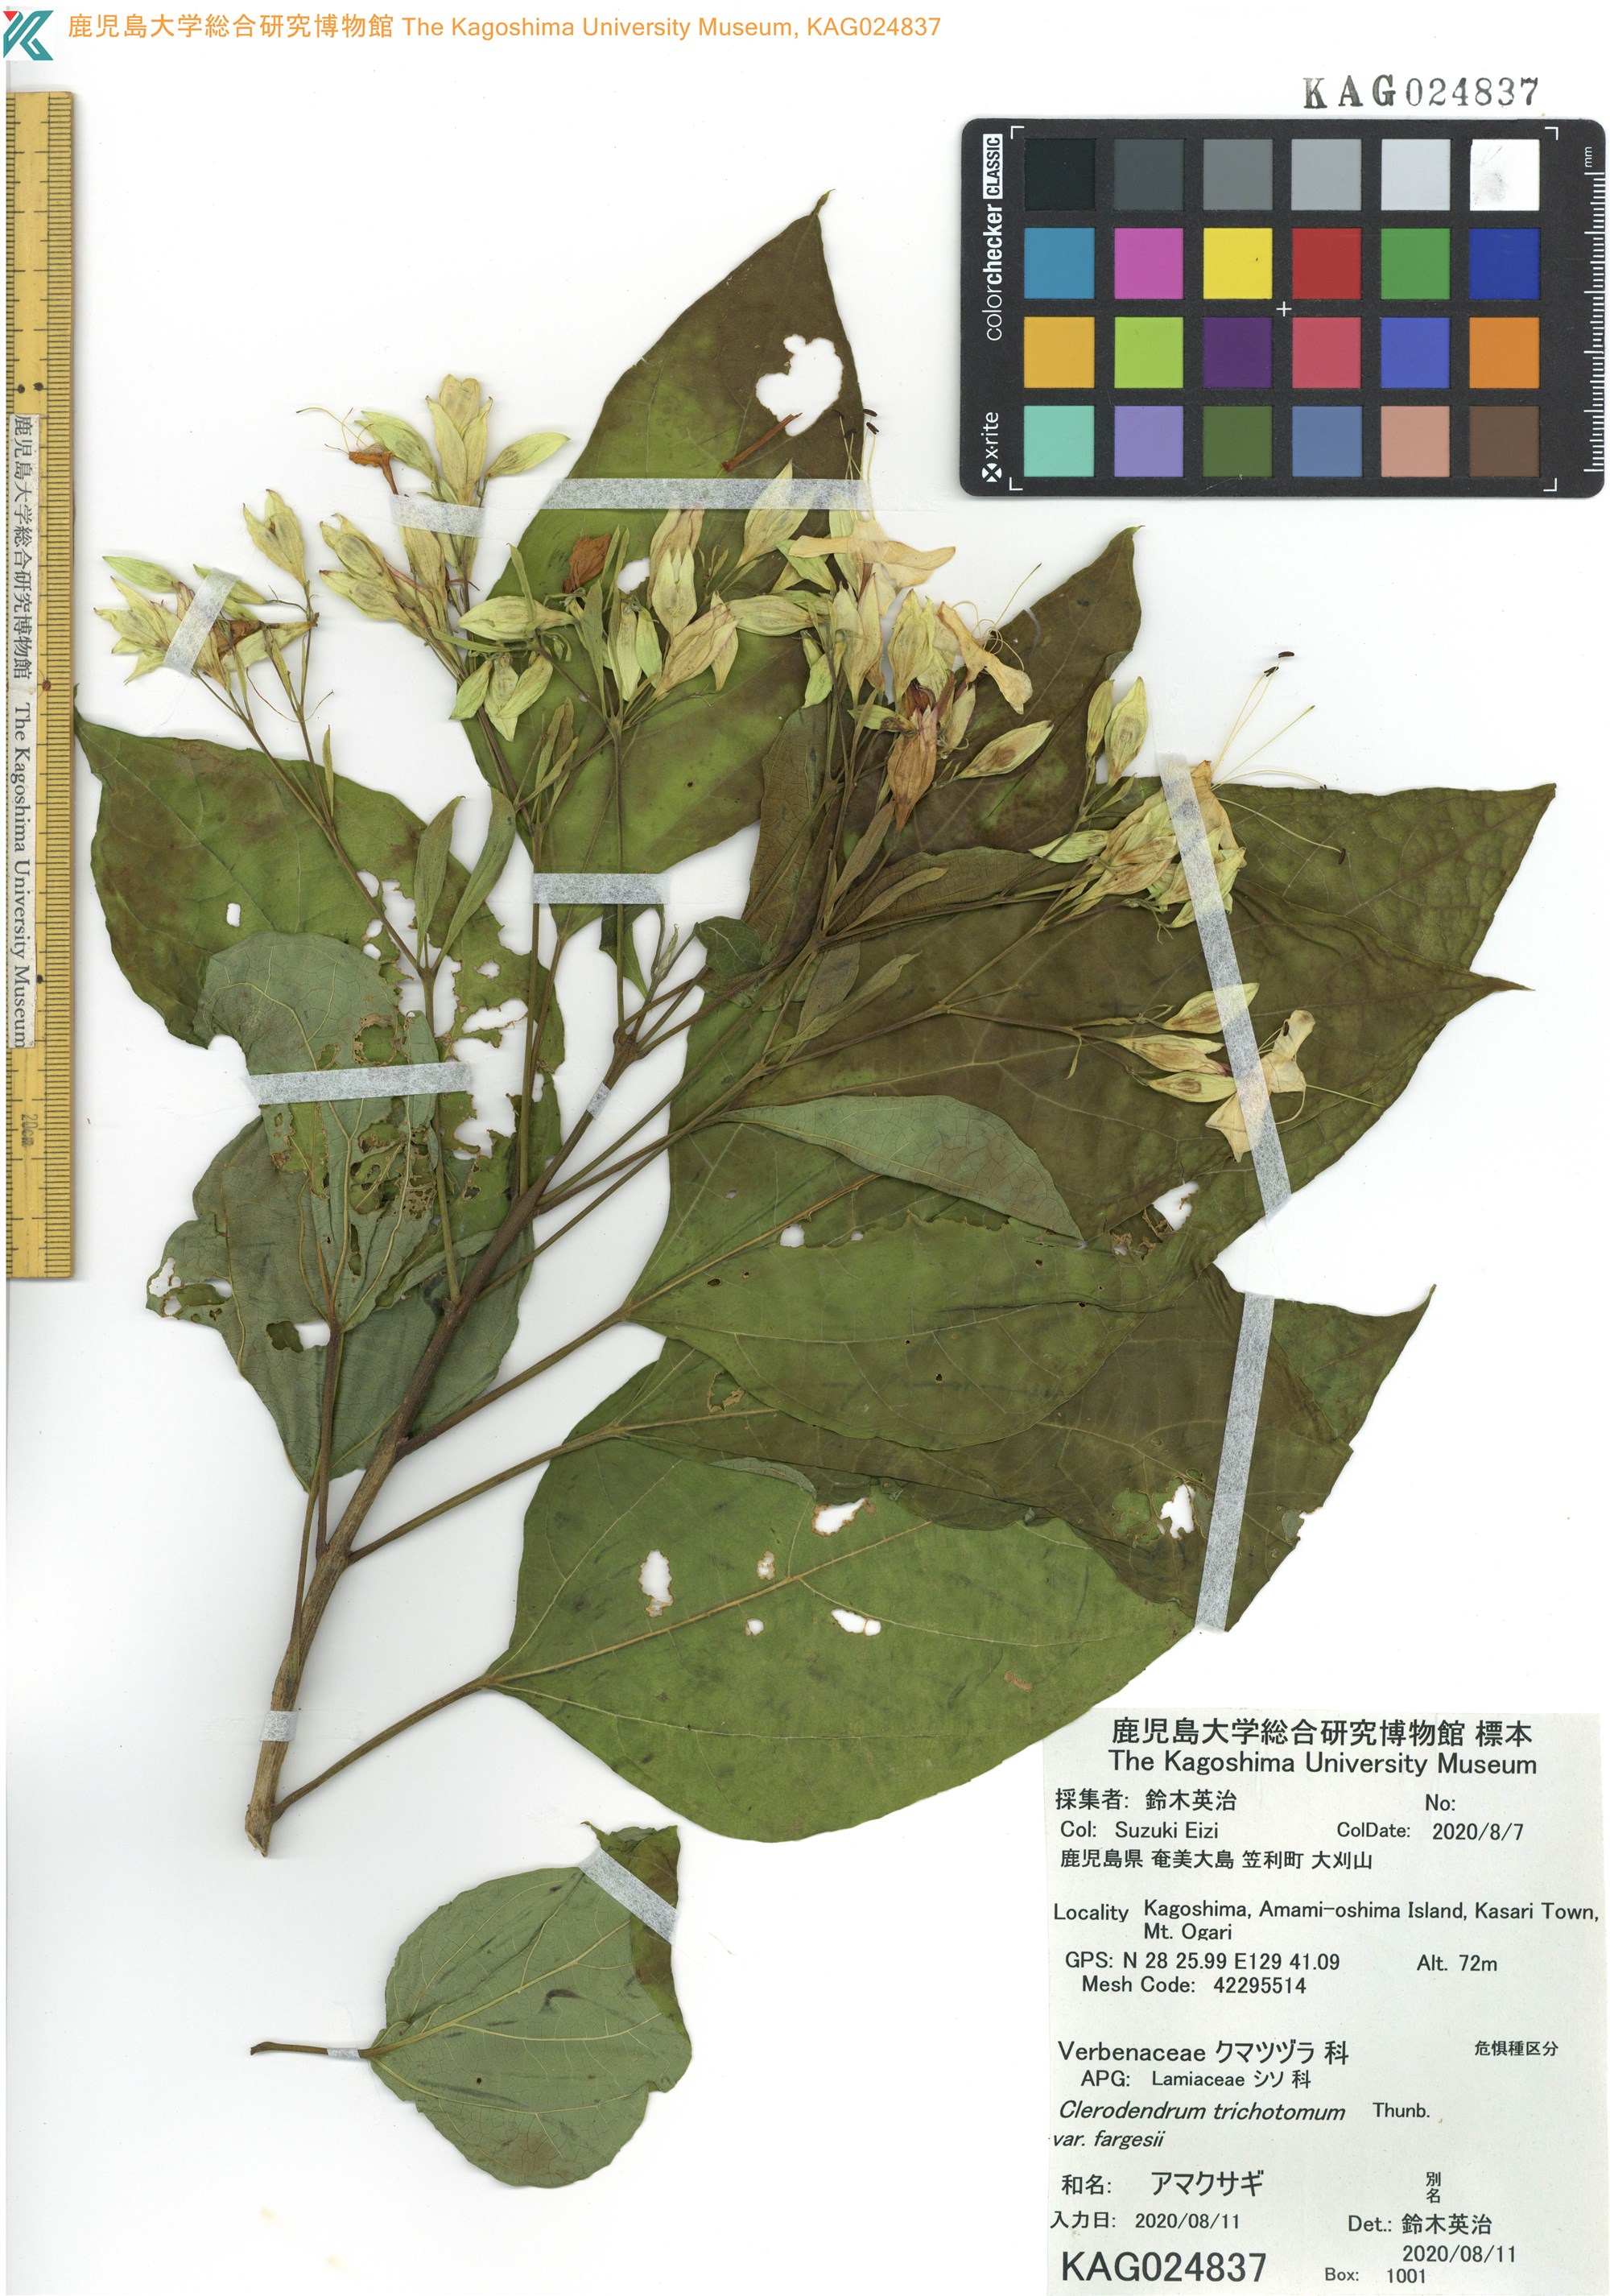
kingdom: Plantae
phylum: Tracheophyta
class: Magnoliopsida
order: Lamiales
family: Lamiaceae
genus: Clerodendrum
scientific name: Clerodendrum trichotomum
